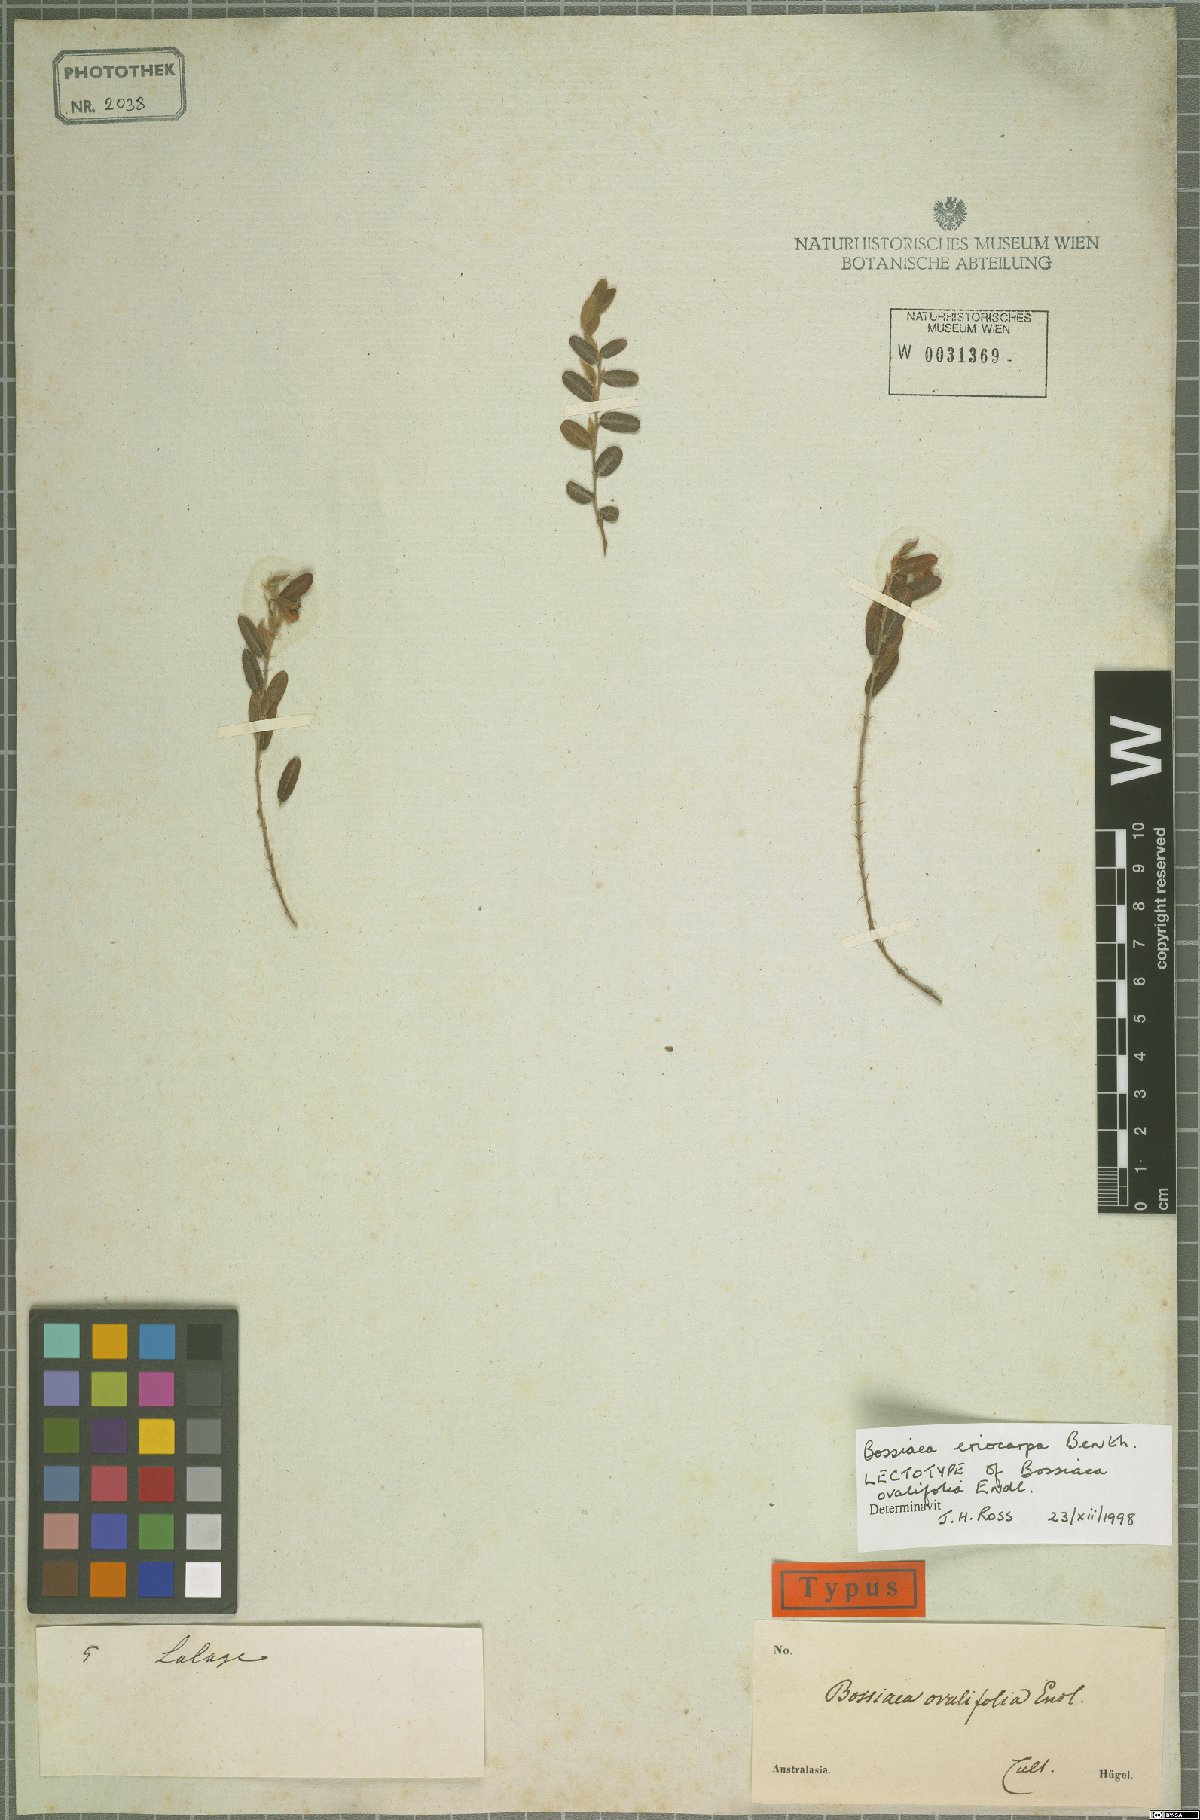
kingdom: Plantae
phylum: Tracheophyta
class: Magnoliopsida
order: Fabales
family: Fabaceae
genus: Bossiaea
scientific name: Bossiaea eriocarpa
